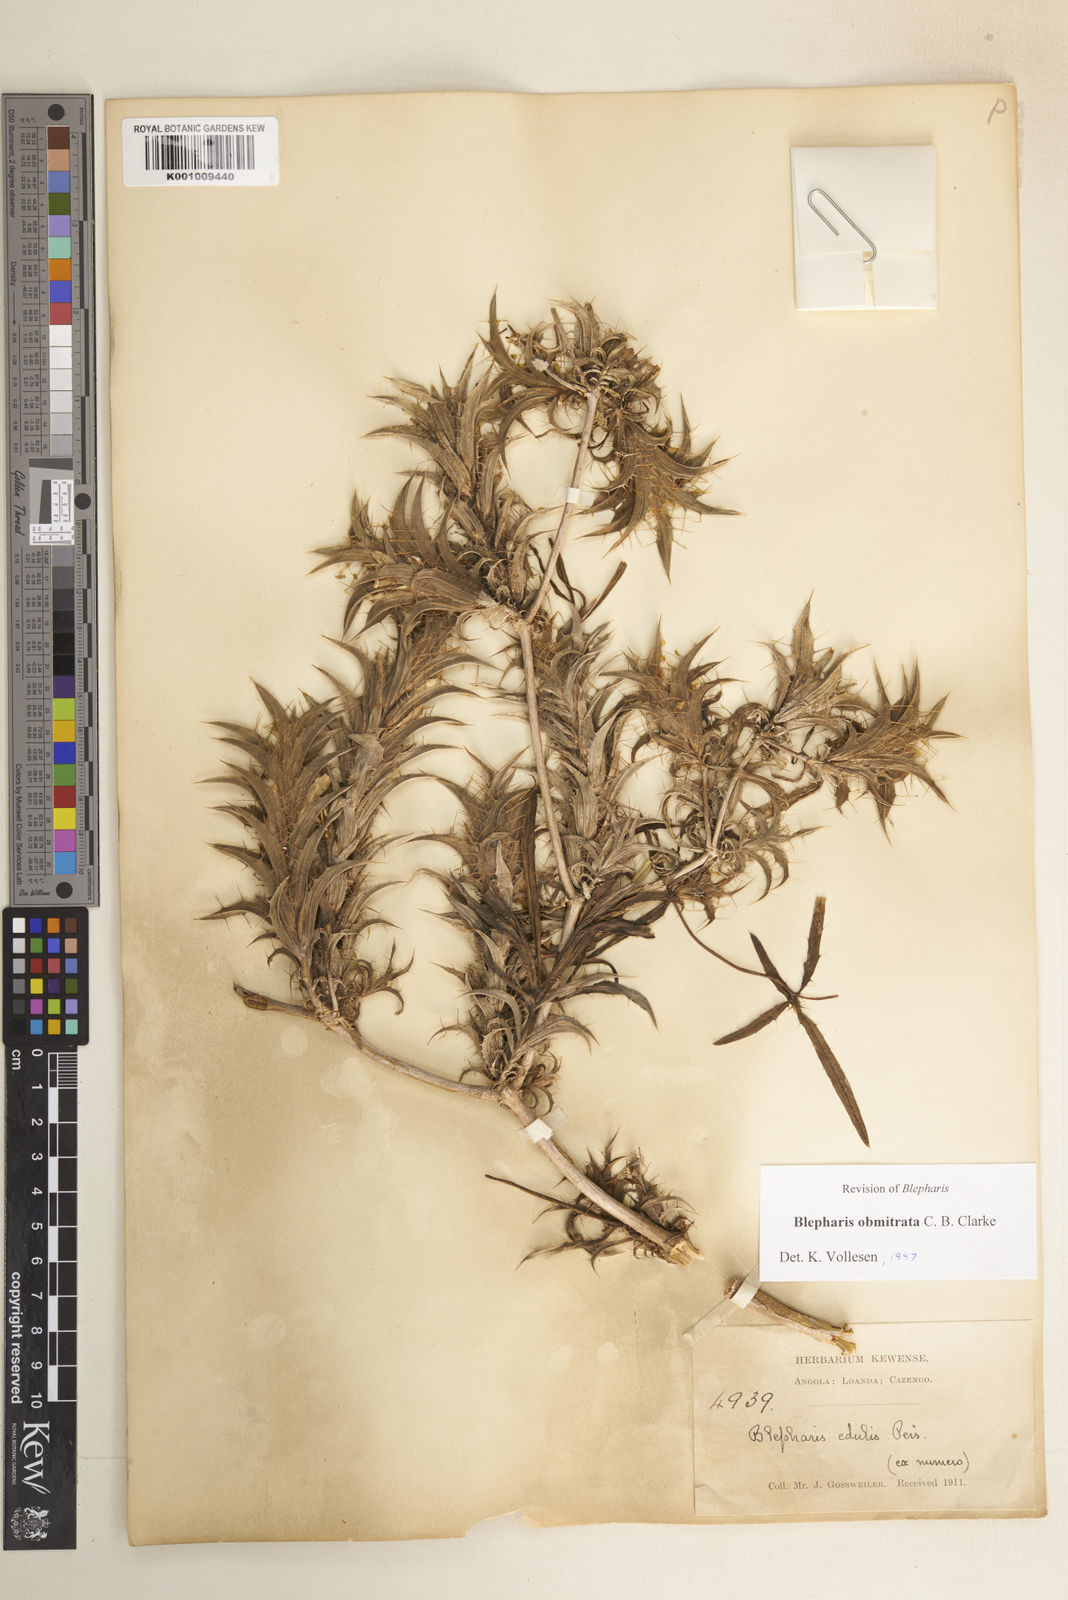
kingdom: Plantae
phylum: Tracheophyta
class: Magnoliopsida
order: Lamiales
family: Acanthaceae
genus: Blepharis
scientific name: Blepharis obmitrata
